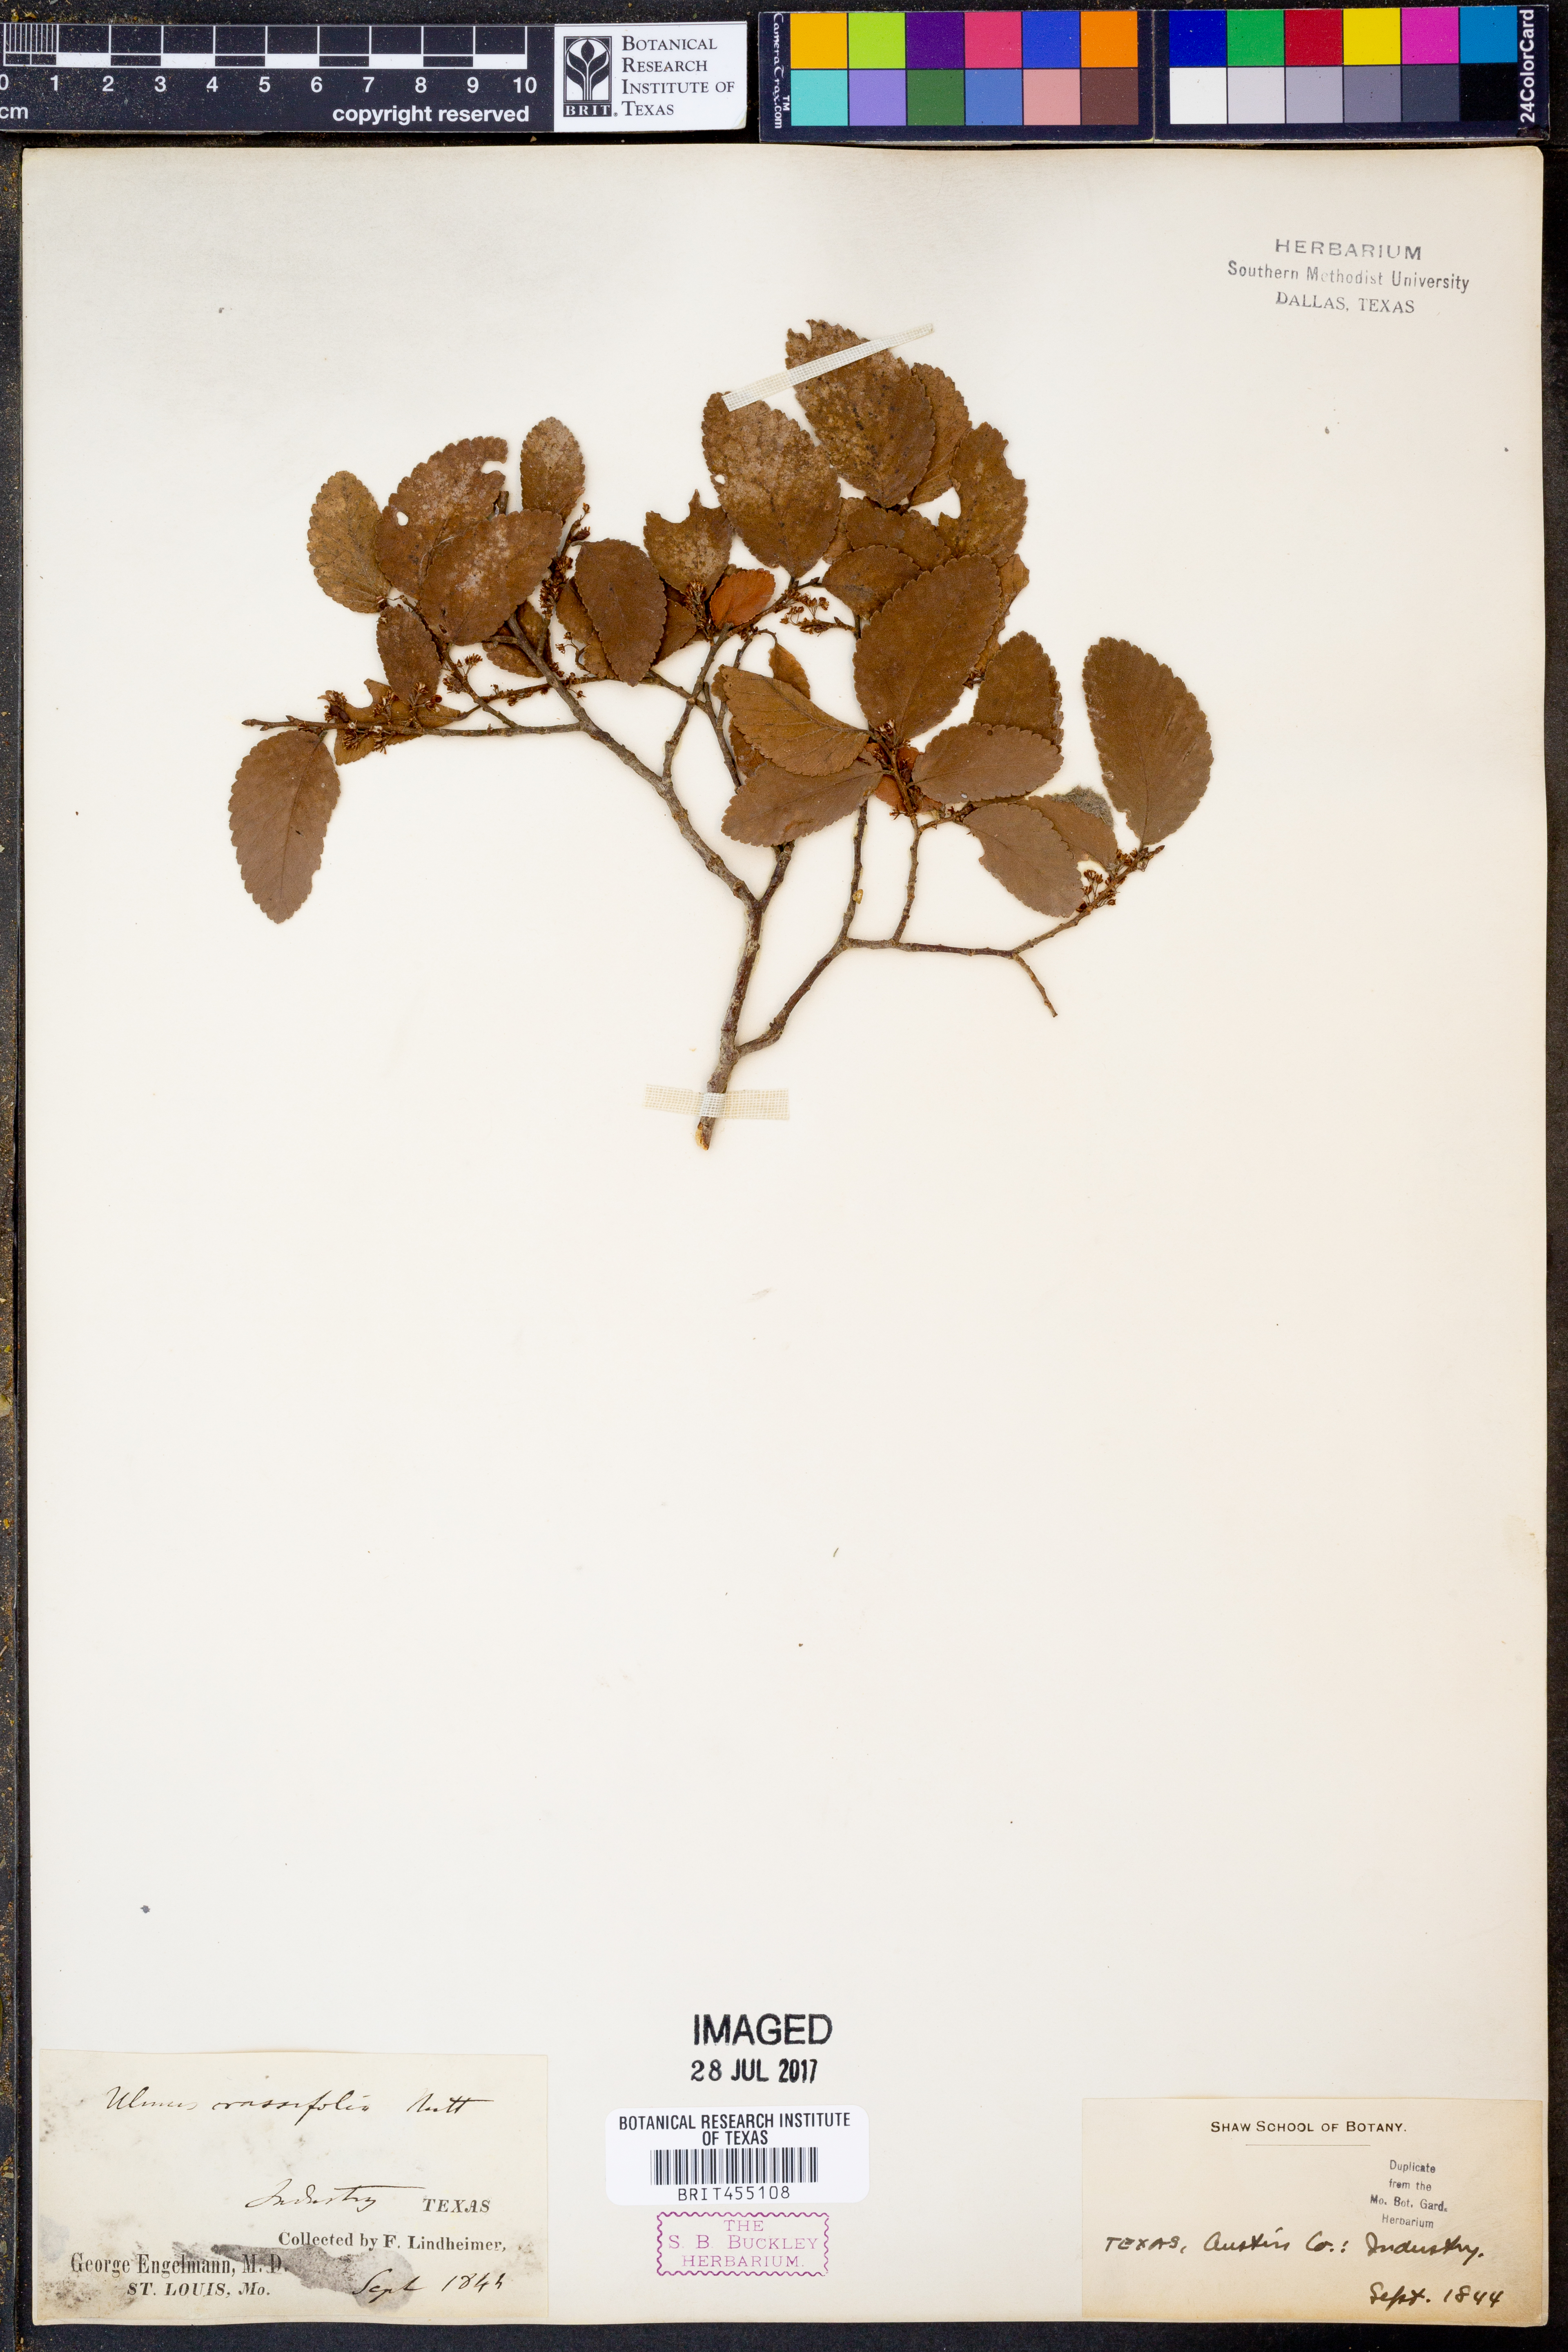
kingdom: Plantae
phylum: Tracheophyta
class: Magnoliopsida
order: Rosales
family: Ulmaceae
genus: Ulmus
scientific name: Ulmus crassifolia
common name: Basket elm
